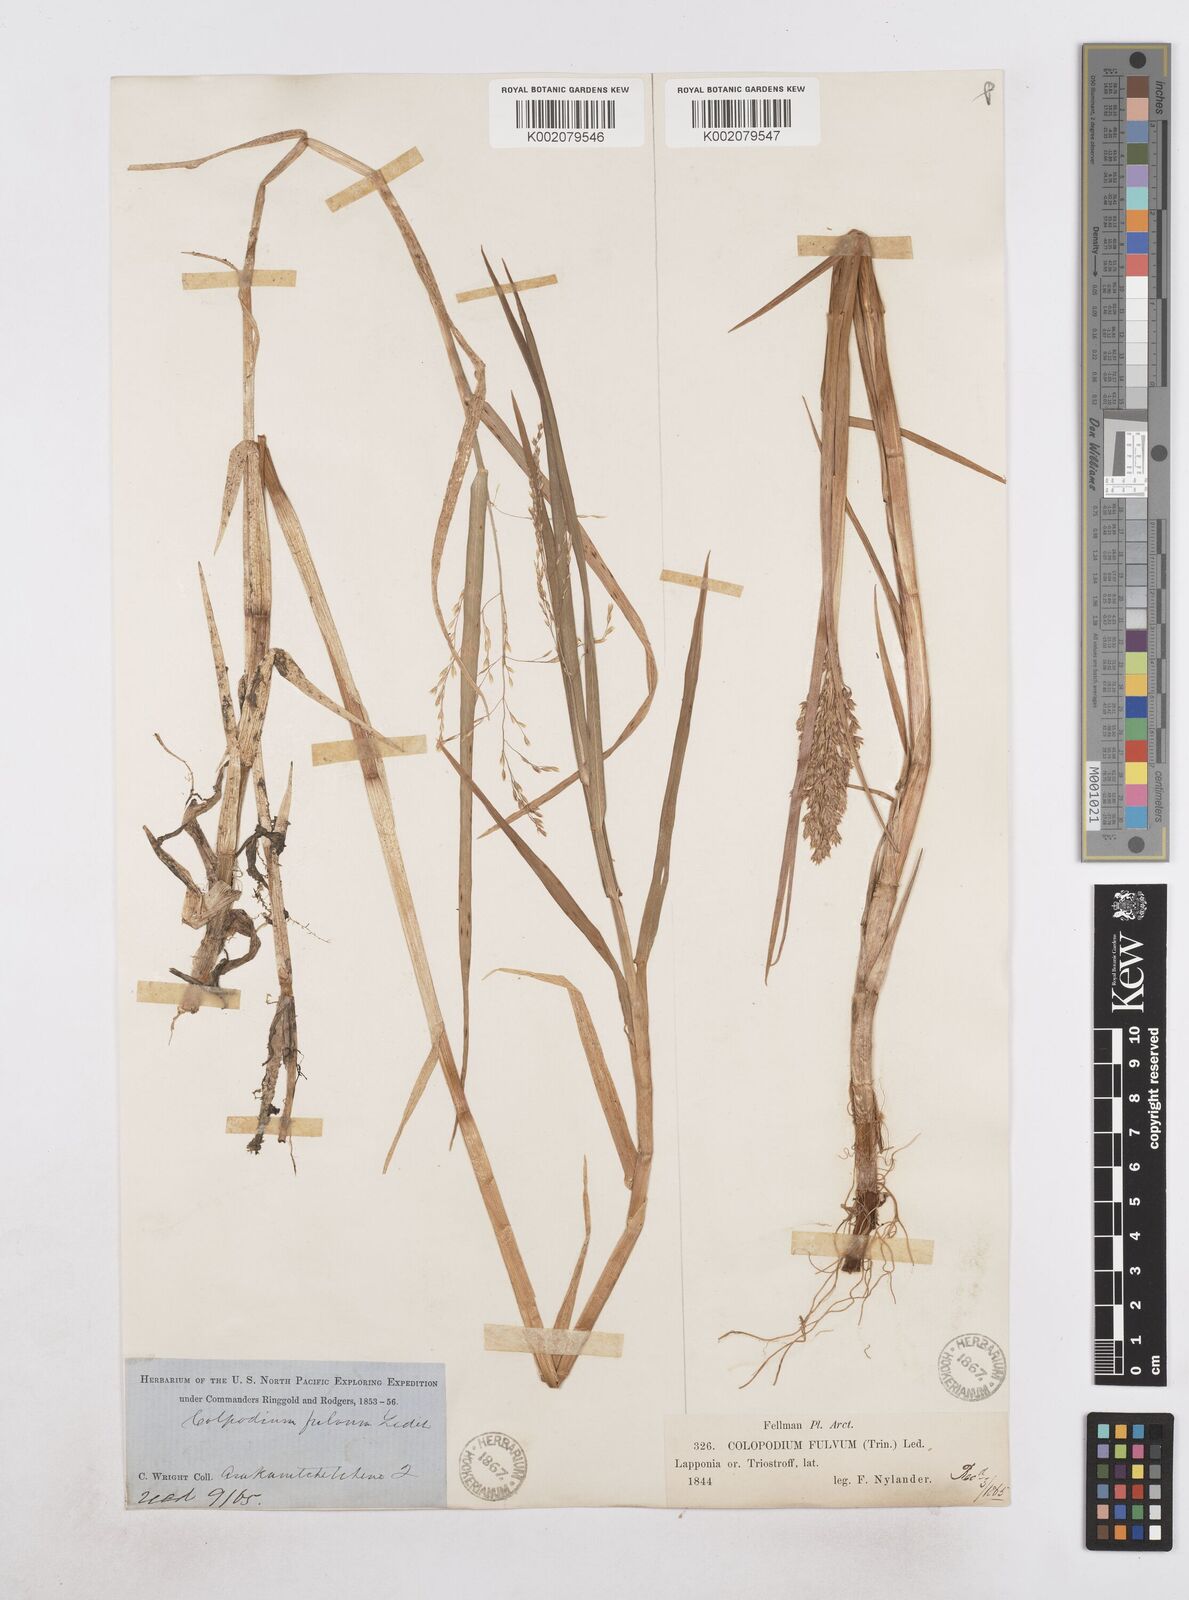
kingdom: Plantae
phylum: Tracheophyta
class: Liliopsida
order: Poales
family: Poaceae
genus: Dupontia
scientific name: Dupontia fulva
